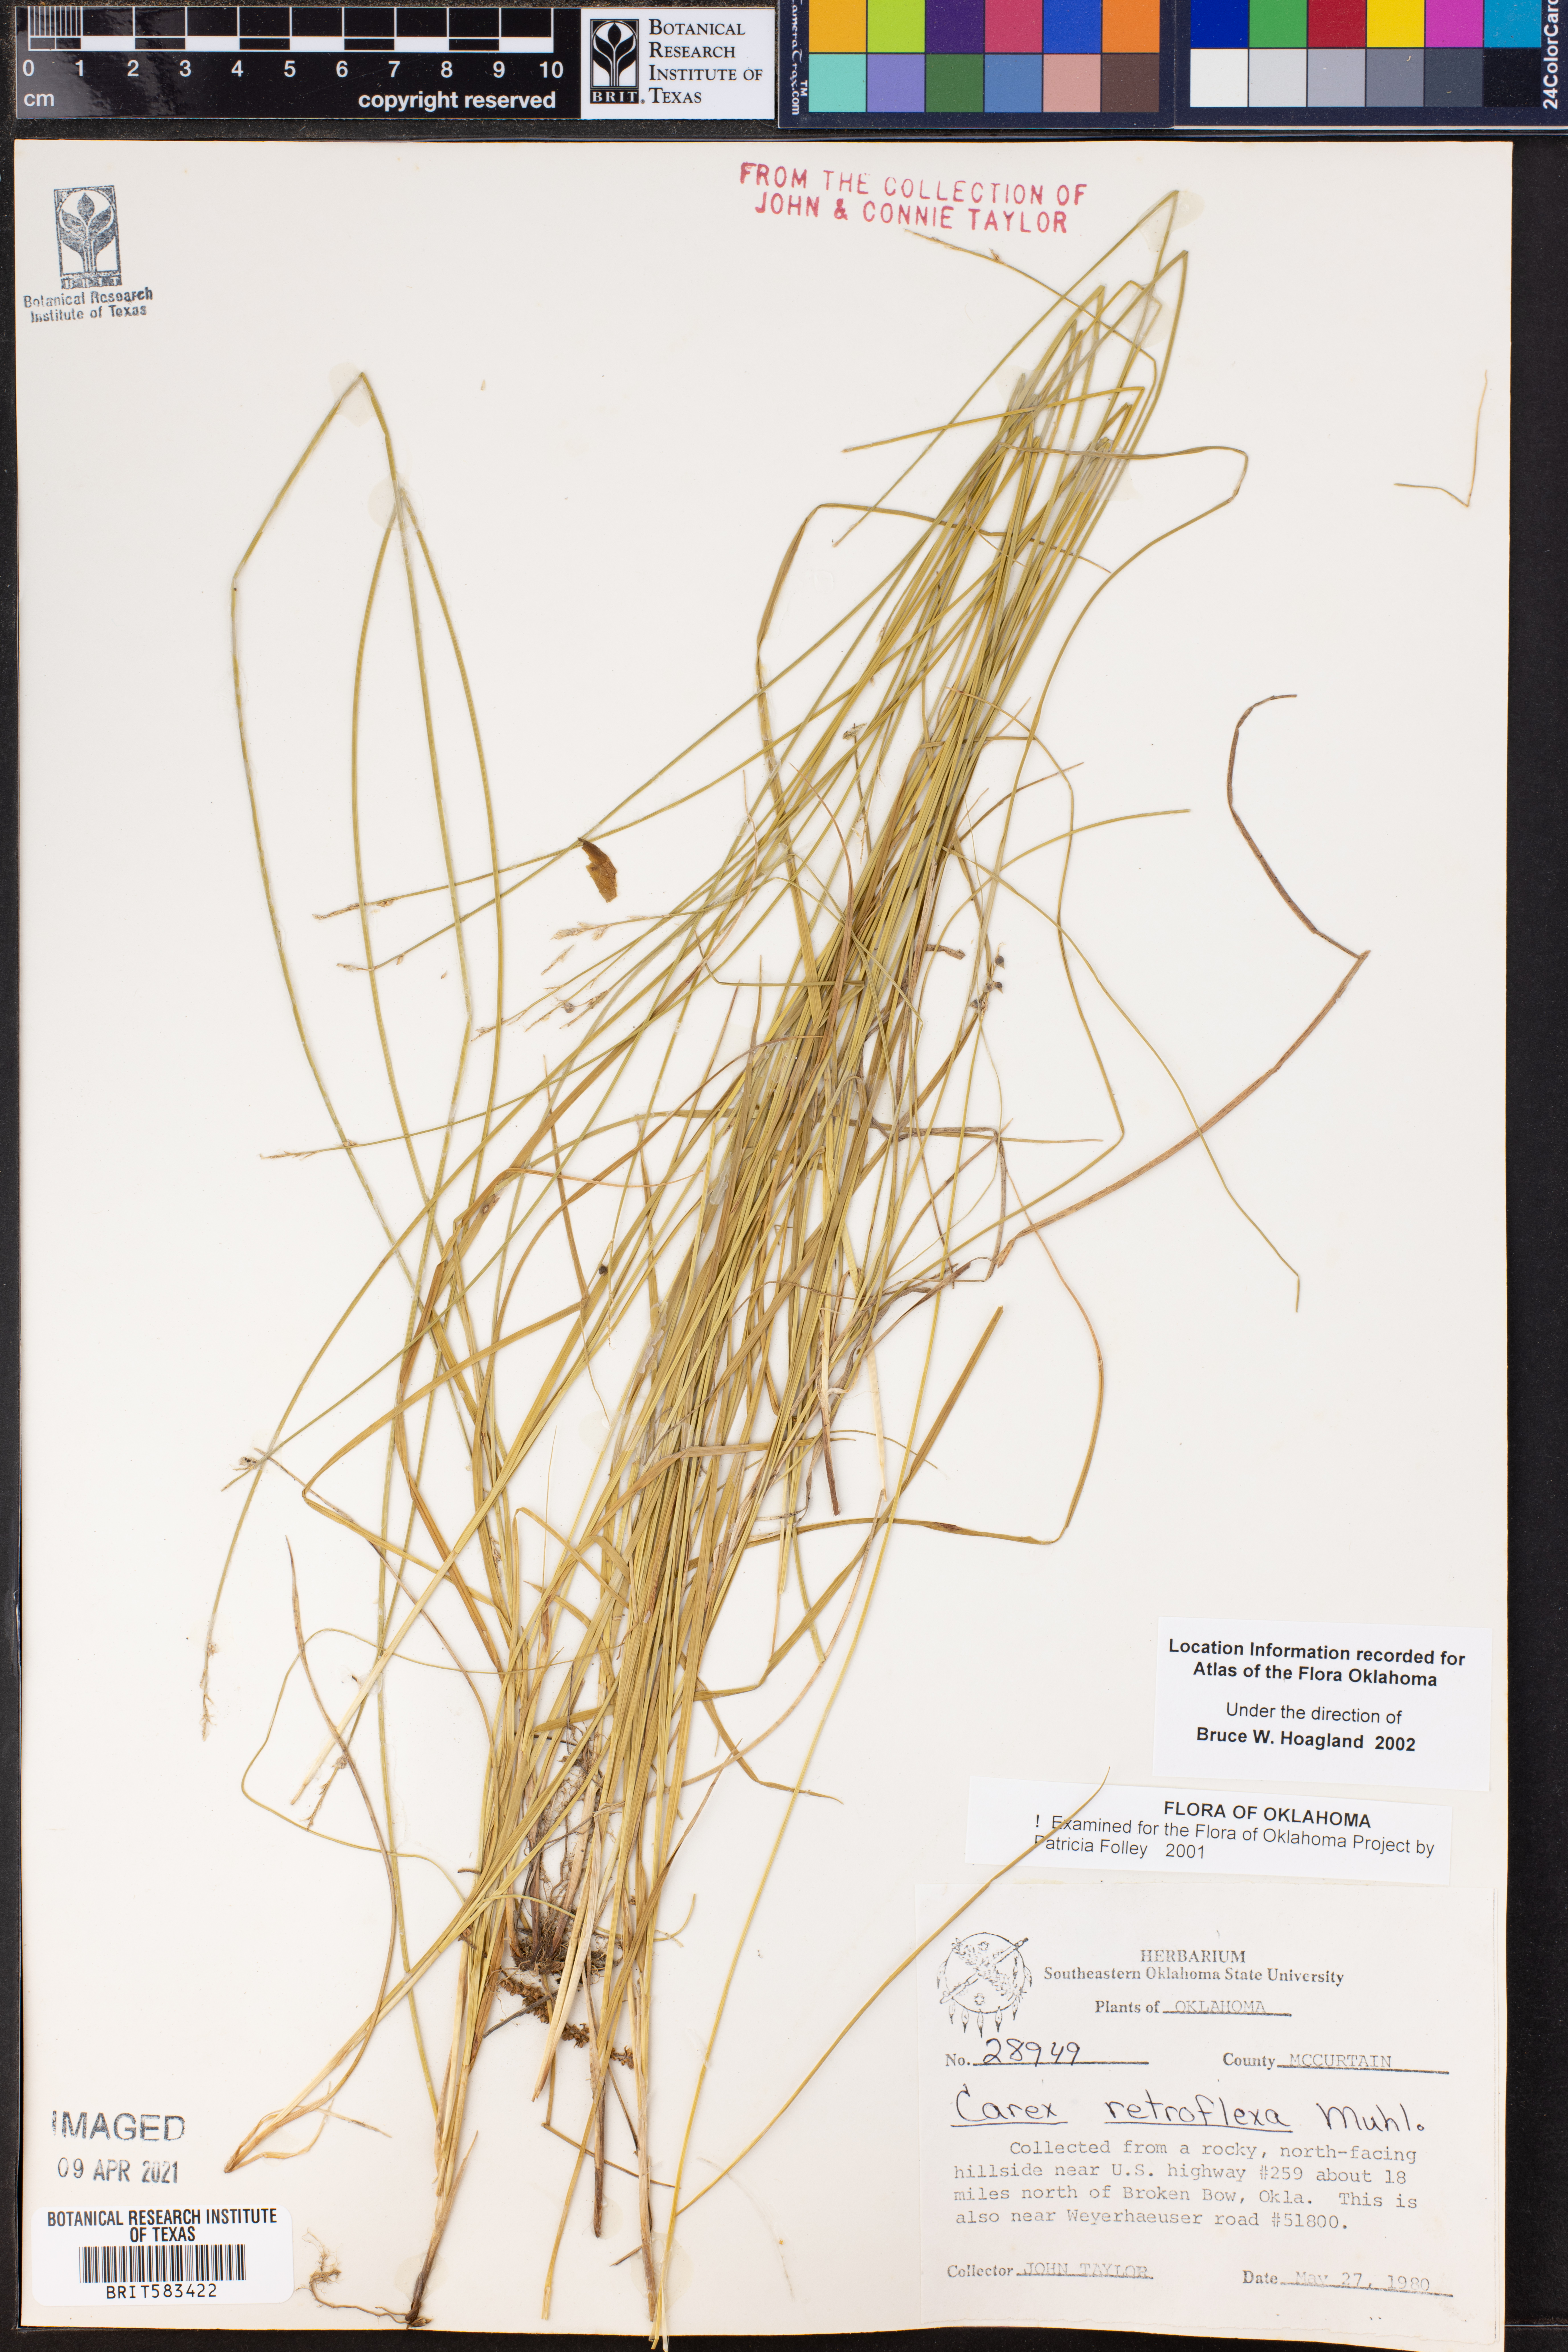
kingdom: Plantae
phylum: Tracheophyta
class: Liliopsida
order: Poales
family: Cyperaceae
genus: Carex
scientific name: Carex retroflexa
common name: Reflexed sedge
